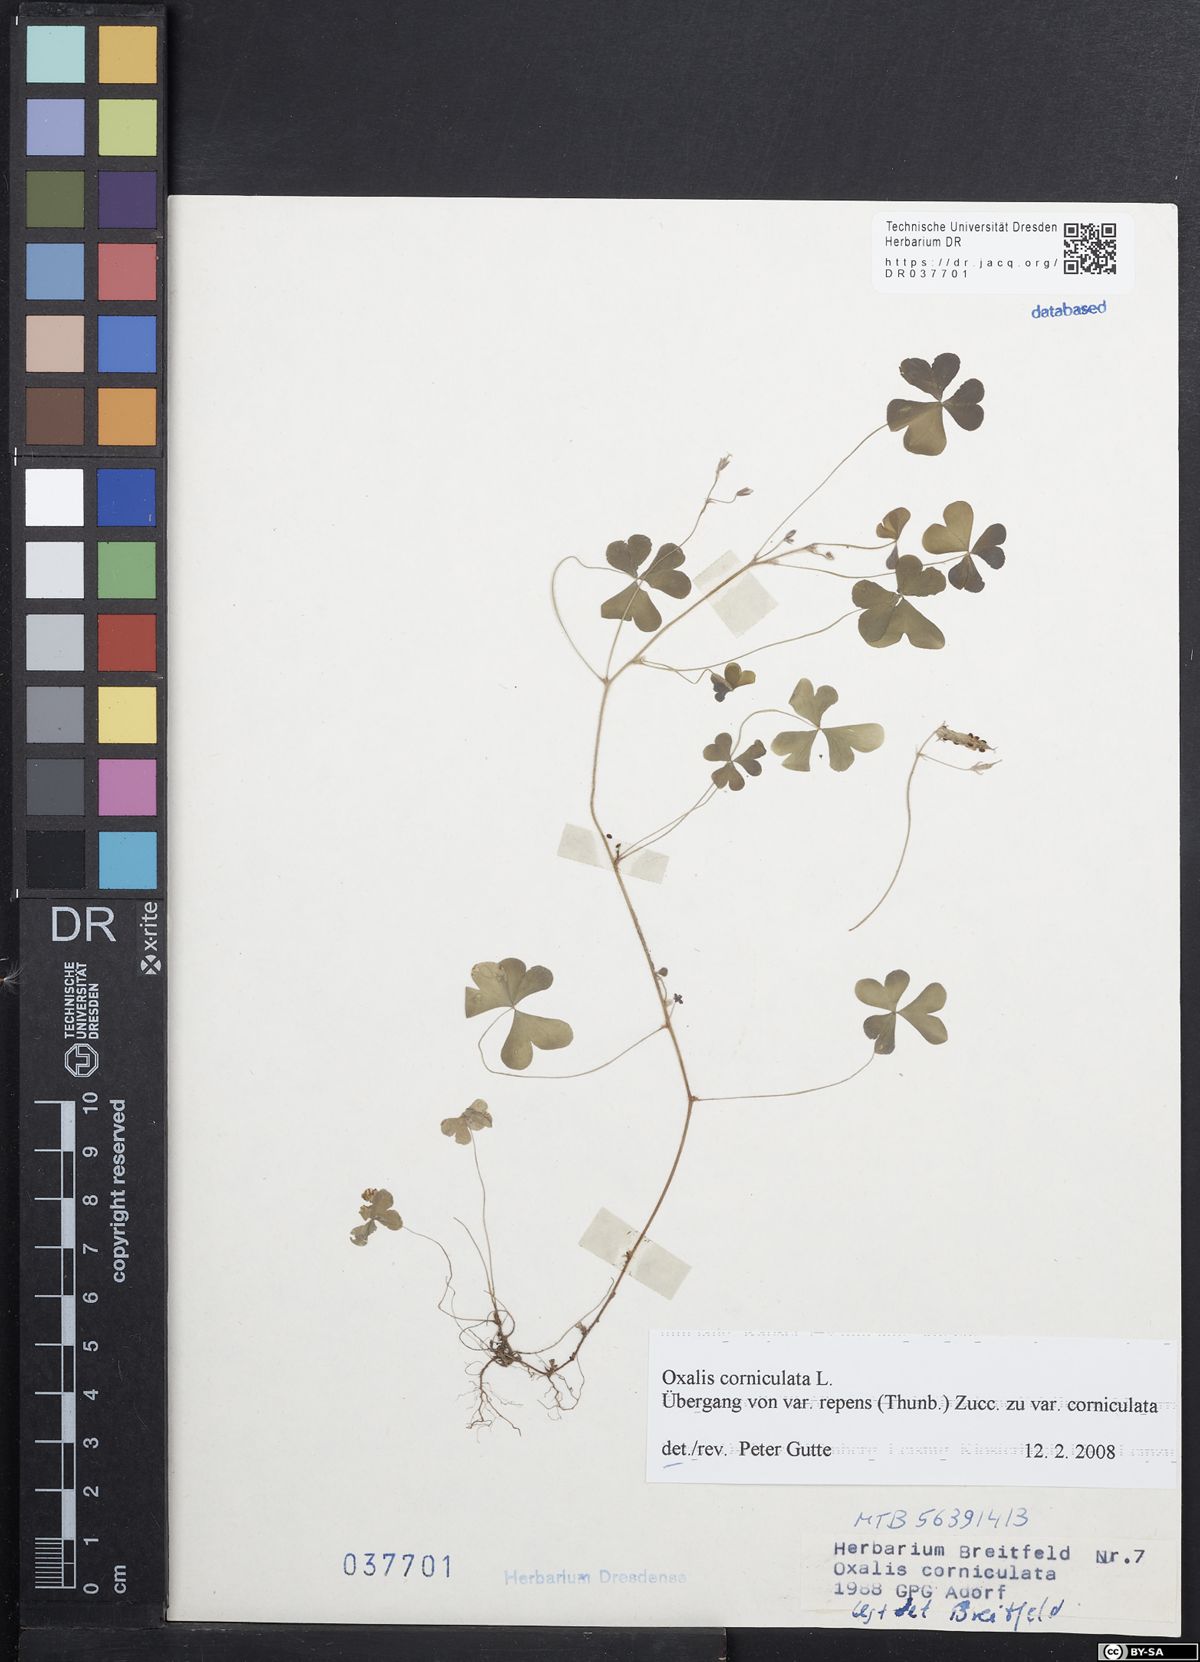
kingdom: Plantae
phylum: Tracheophyta
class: Magnoliopsida
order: Oxalidales
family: Oxalidaceae
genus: Oxalis
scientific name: Oxalis corniculata
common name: Procumbent yellow-sorrel
